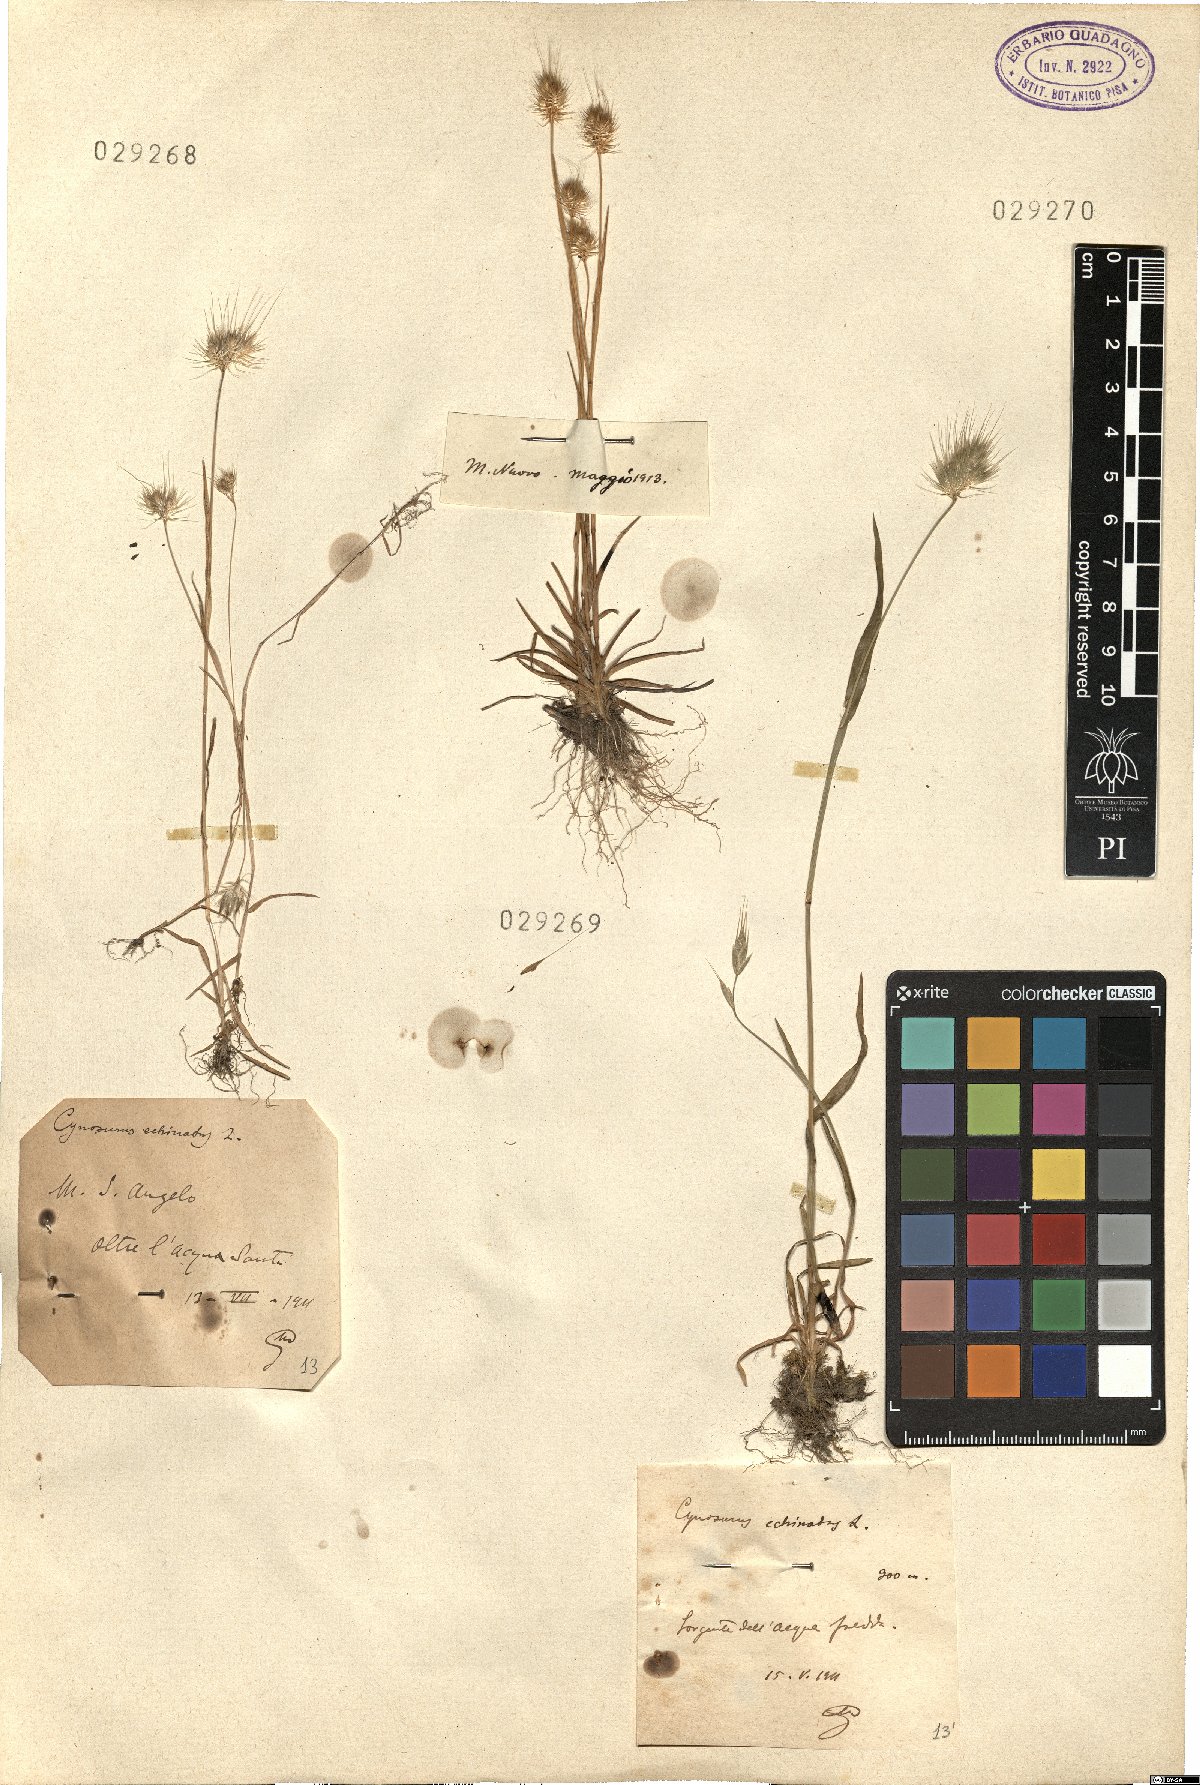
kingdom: Plantae
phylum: Tracheophyta
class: Liliopsida
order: Poales
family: Poaceae
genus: Cynosurus
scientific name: Cynosurus echinatus
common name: Rough dog's-tail
